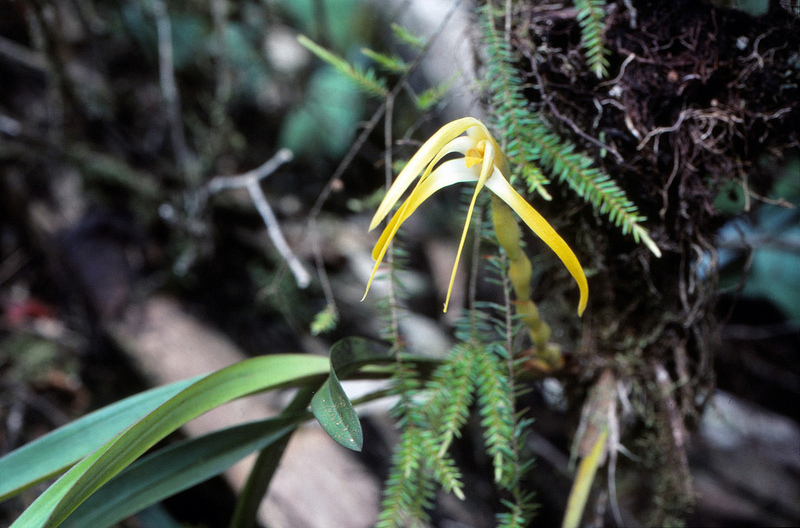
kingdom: Plantae
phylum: Tracheophyta
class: Liliopsida
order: Asparagales
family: Orchidaceae
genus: Maxillaria
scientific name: Maxillaria
